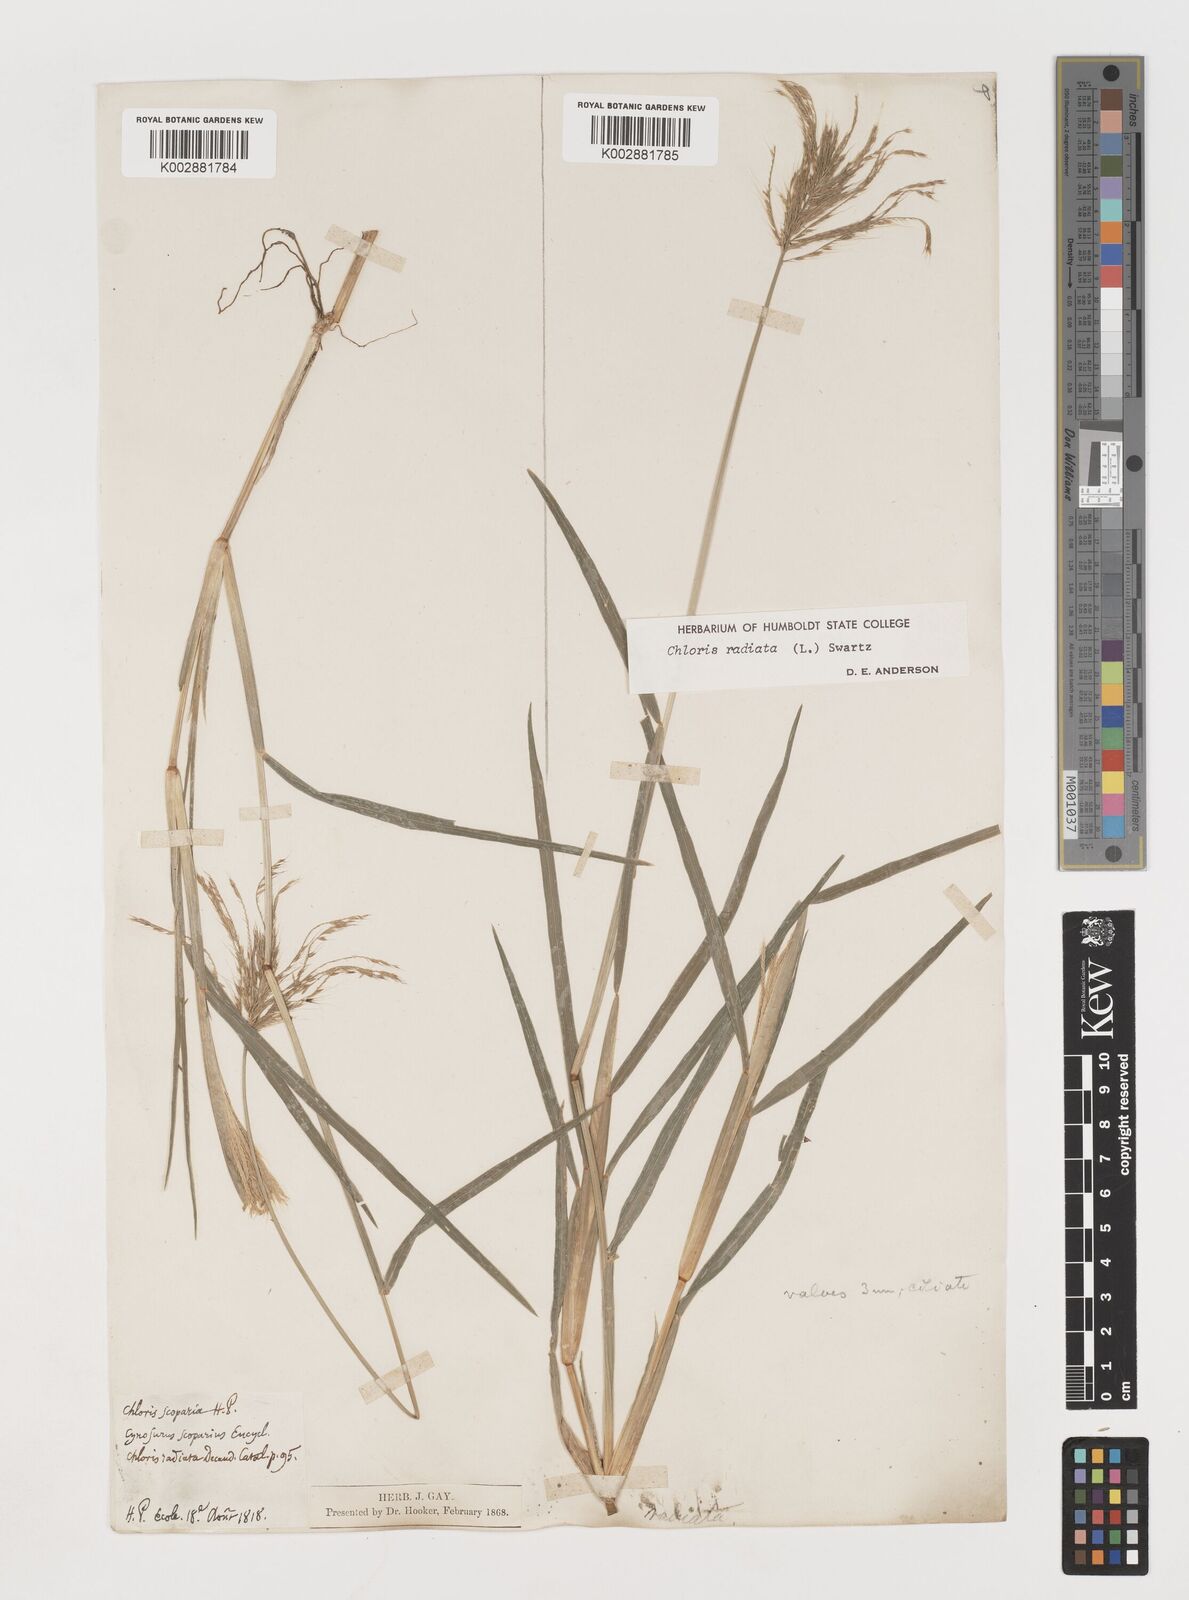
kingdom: Plantae
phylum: Tracheophyta
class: Liliopsida
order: Poales
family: Poaceae
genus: Chloris
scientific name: Chloris radiata
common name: Radiate fingergrass
